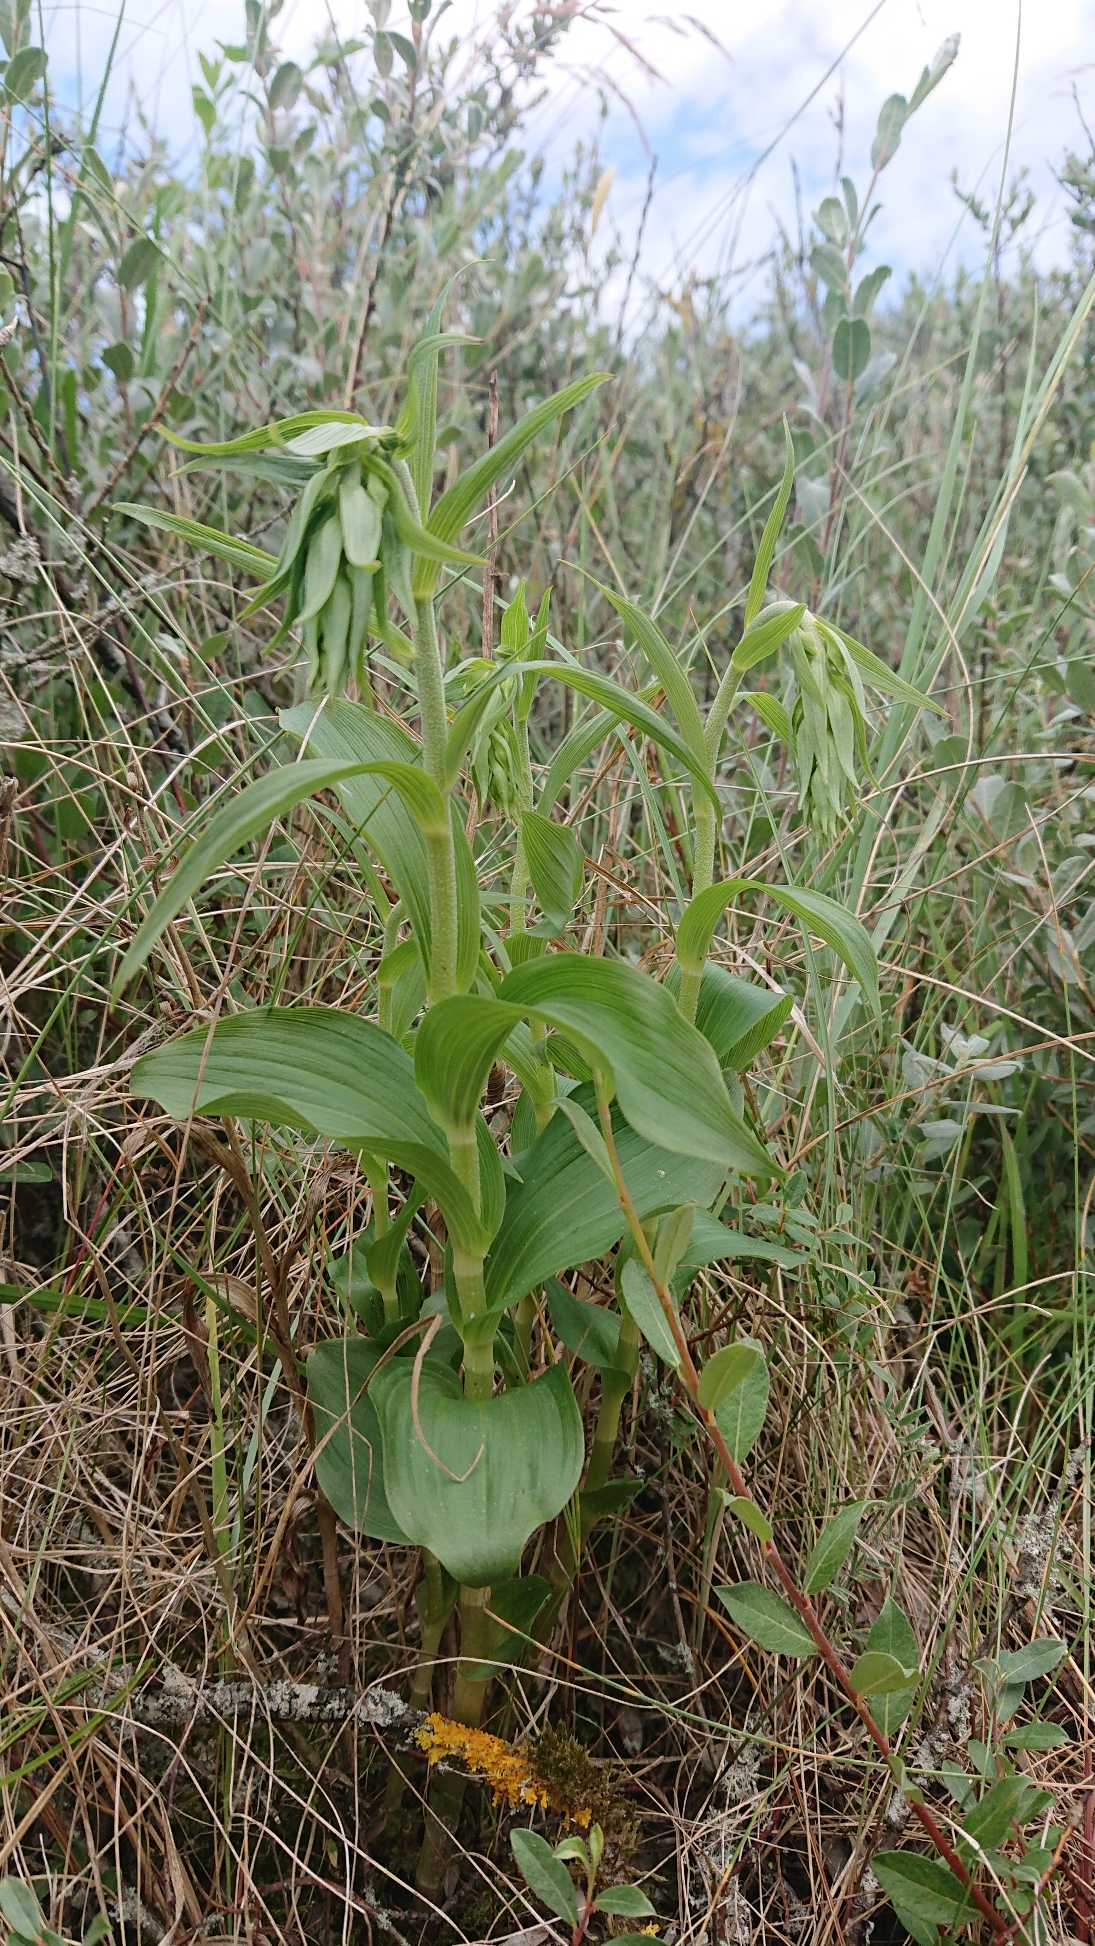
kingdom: Plantae
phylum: Tracheophyta
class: Liliopsida
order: Asparagales
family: Orchidaceae
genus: Epipactis
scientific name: Epipactis helleborine
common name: Skov-hullæbe
